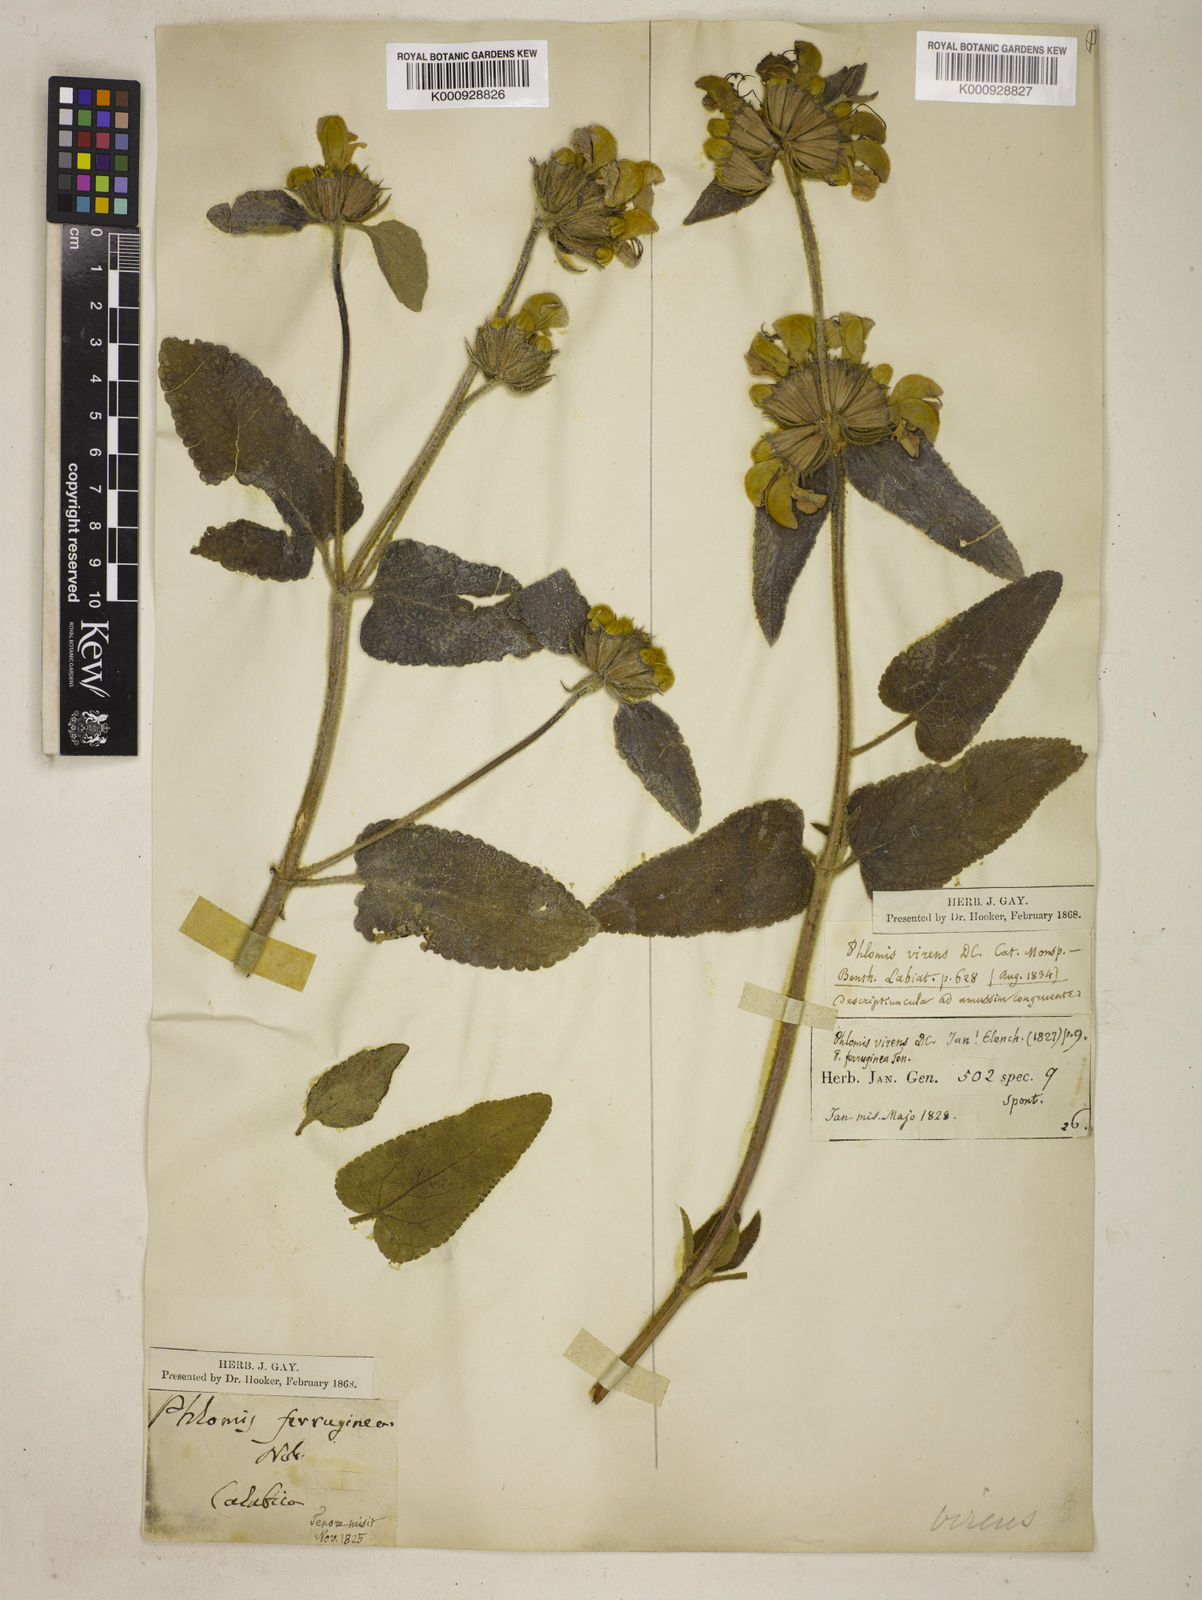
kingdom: Plantae
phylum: Tracheophyta
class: Magnoliopsida
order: Lamiales
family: Lamiaceae
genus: Phlomis
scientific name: Phlomis tenorei
